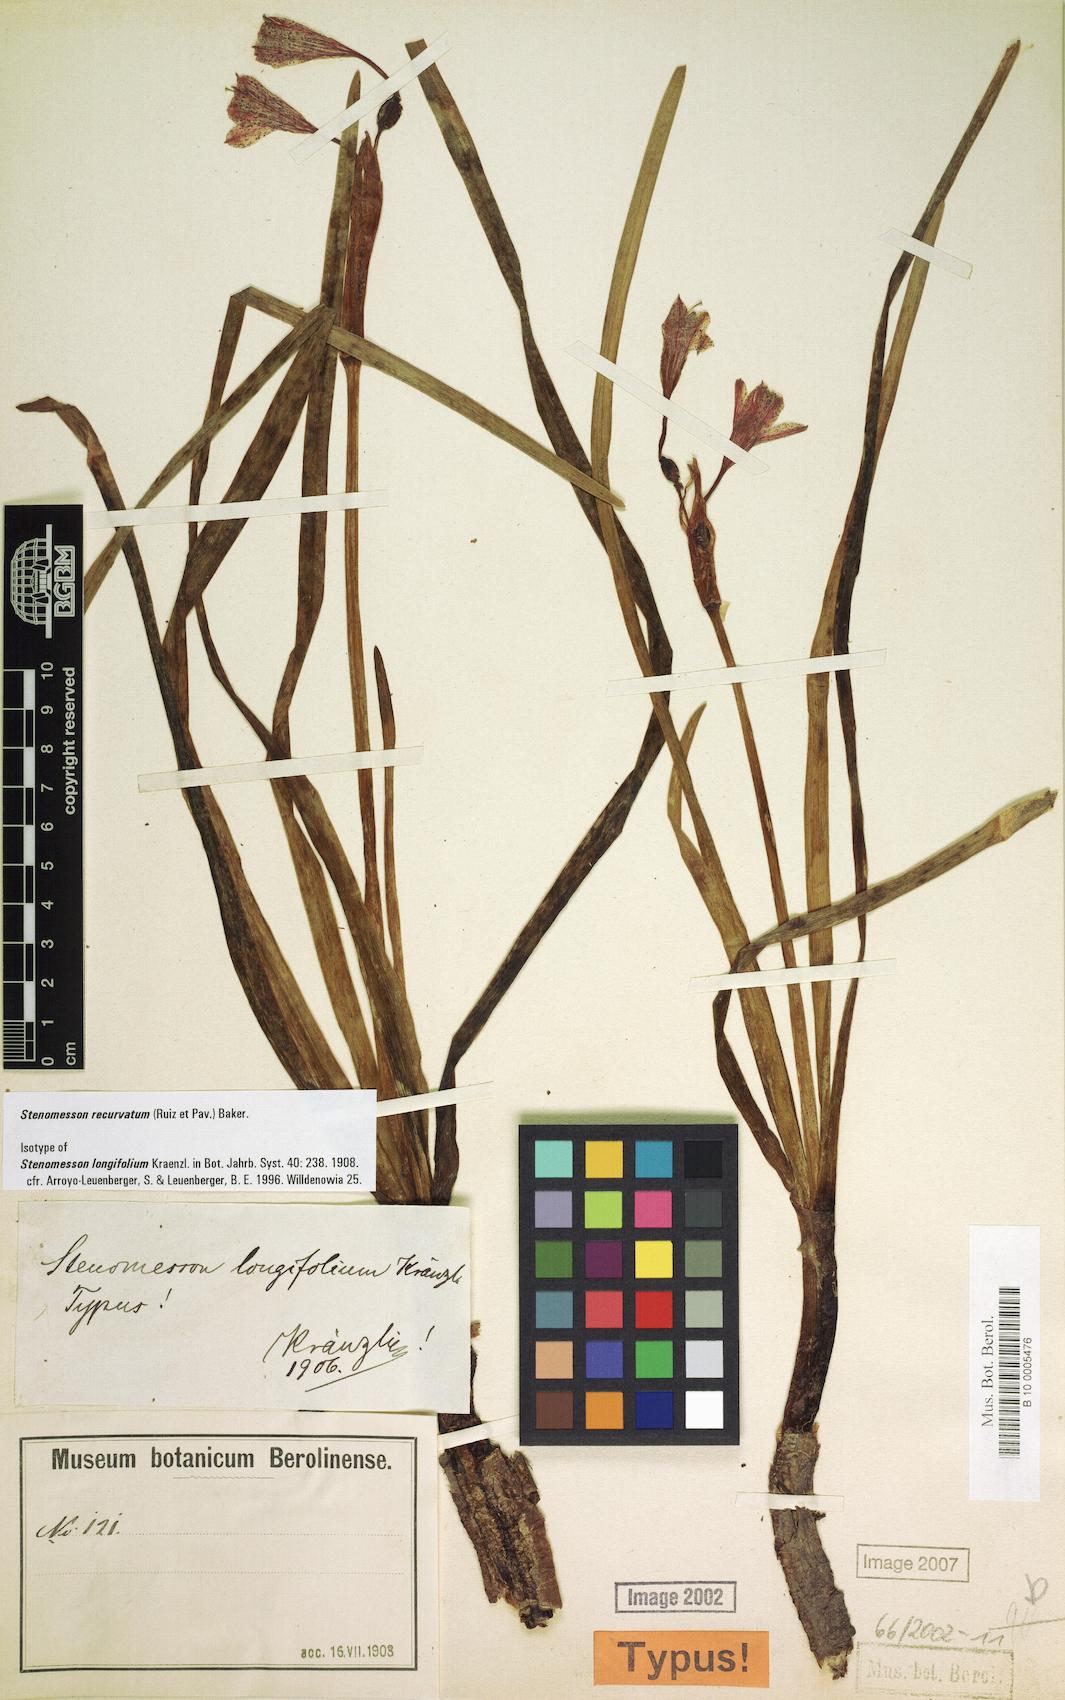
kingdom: Plantae
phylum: Tracheophyta
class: Liliopsida
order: Asparagales
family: Amaryllidaceae
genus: Clinanthus
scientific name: Clinanthus recurvatus
